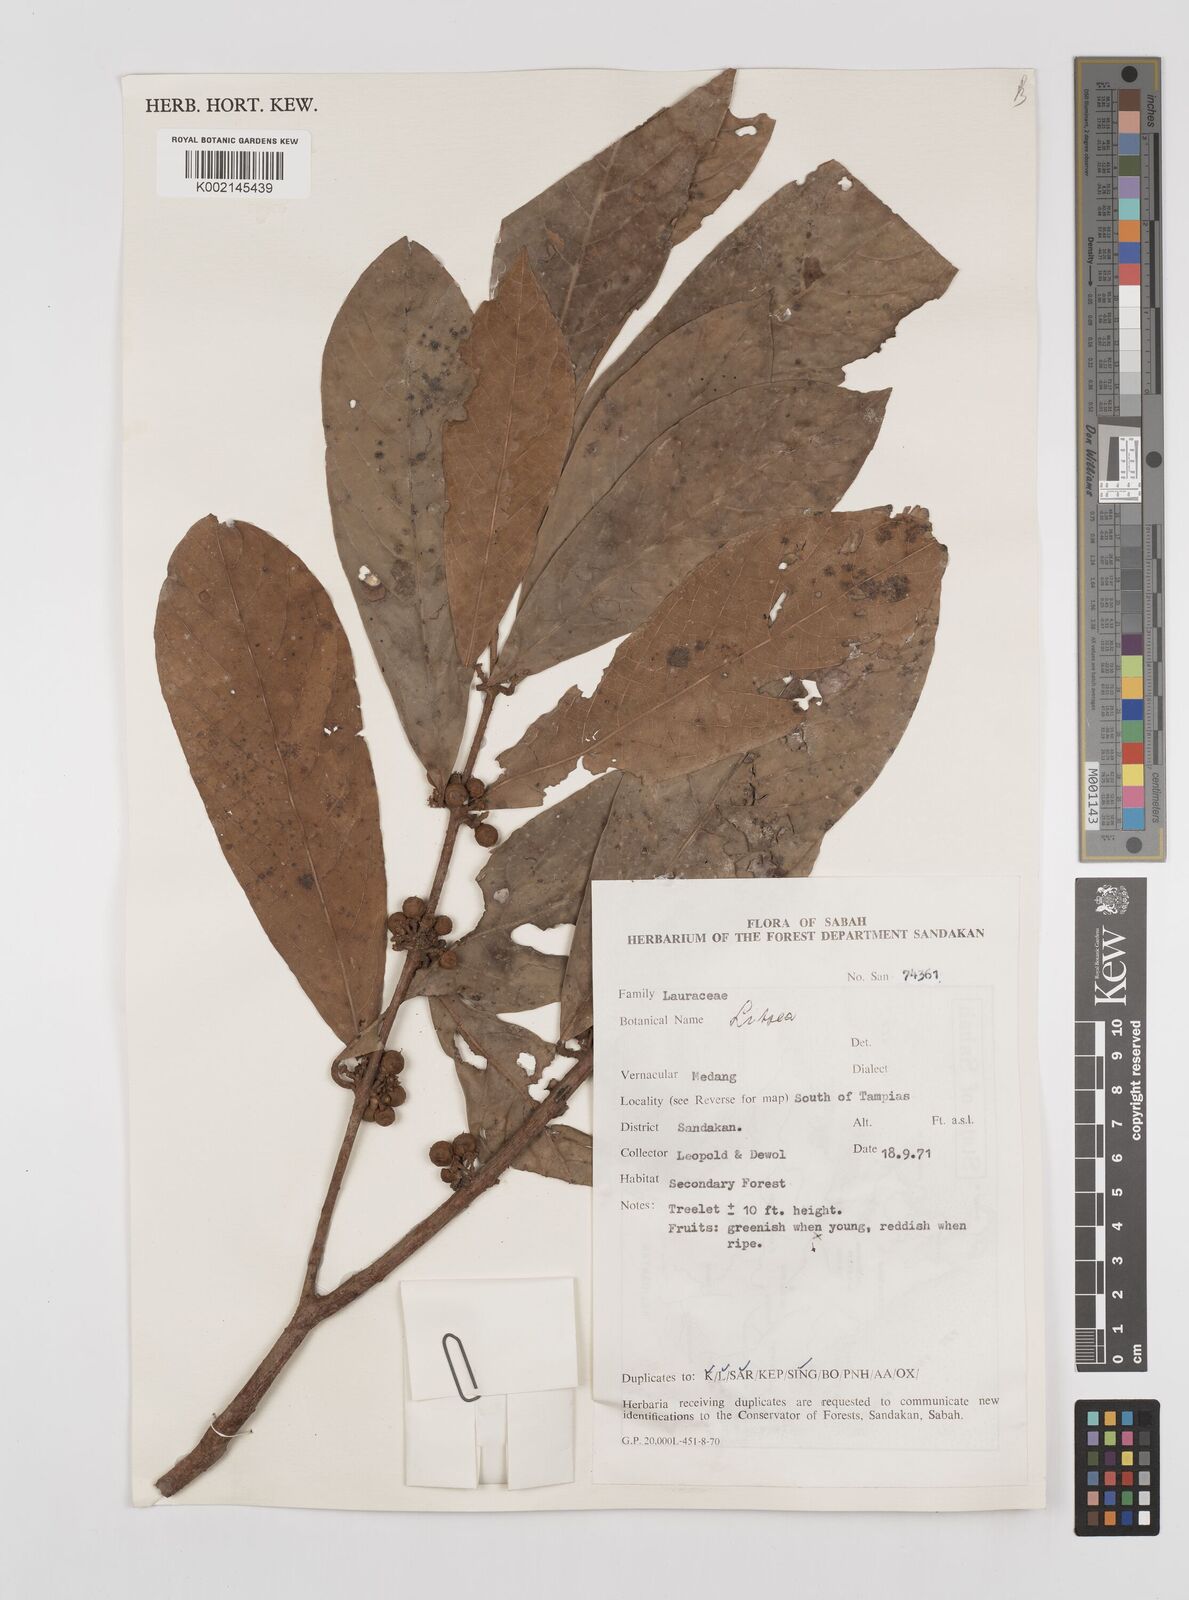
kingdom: Plantae
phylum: Tracheophyta
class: Magnoliopsida
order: Laurales
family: Lauraceae
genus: Litsea
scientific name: Litsea
